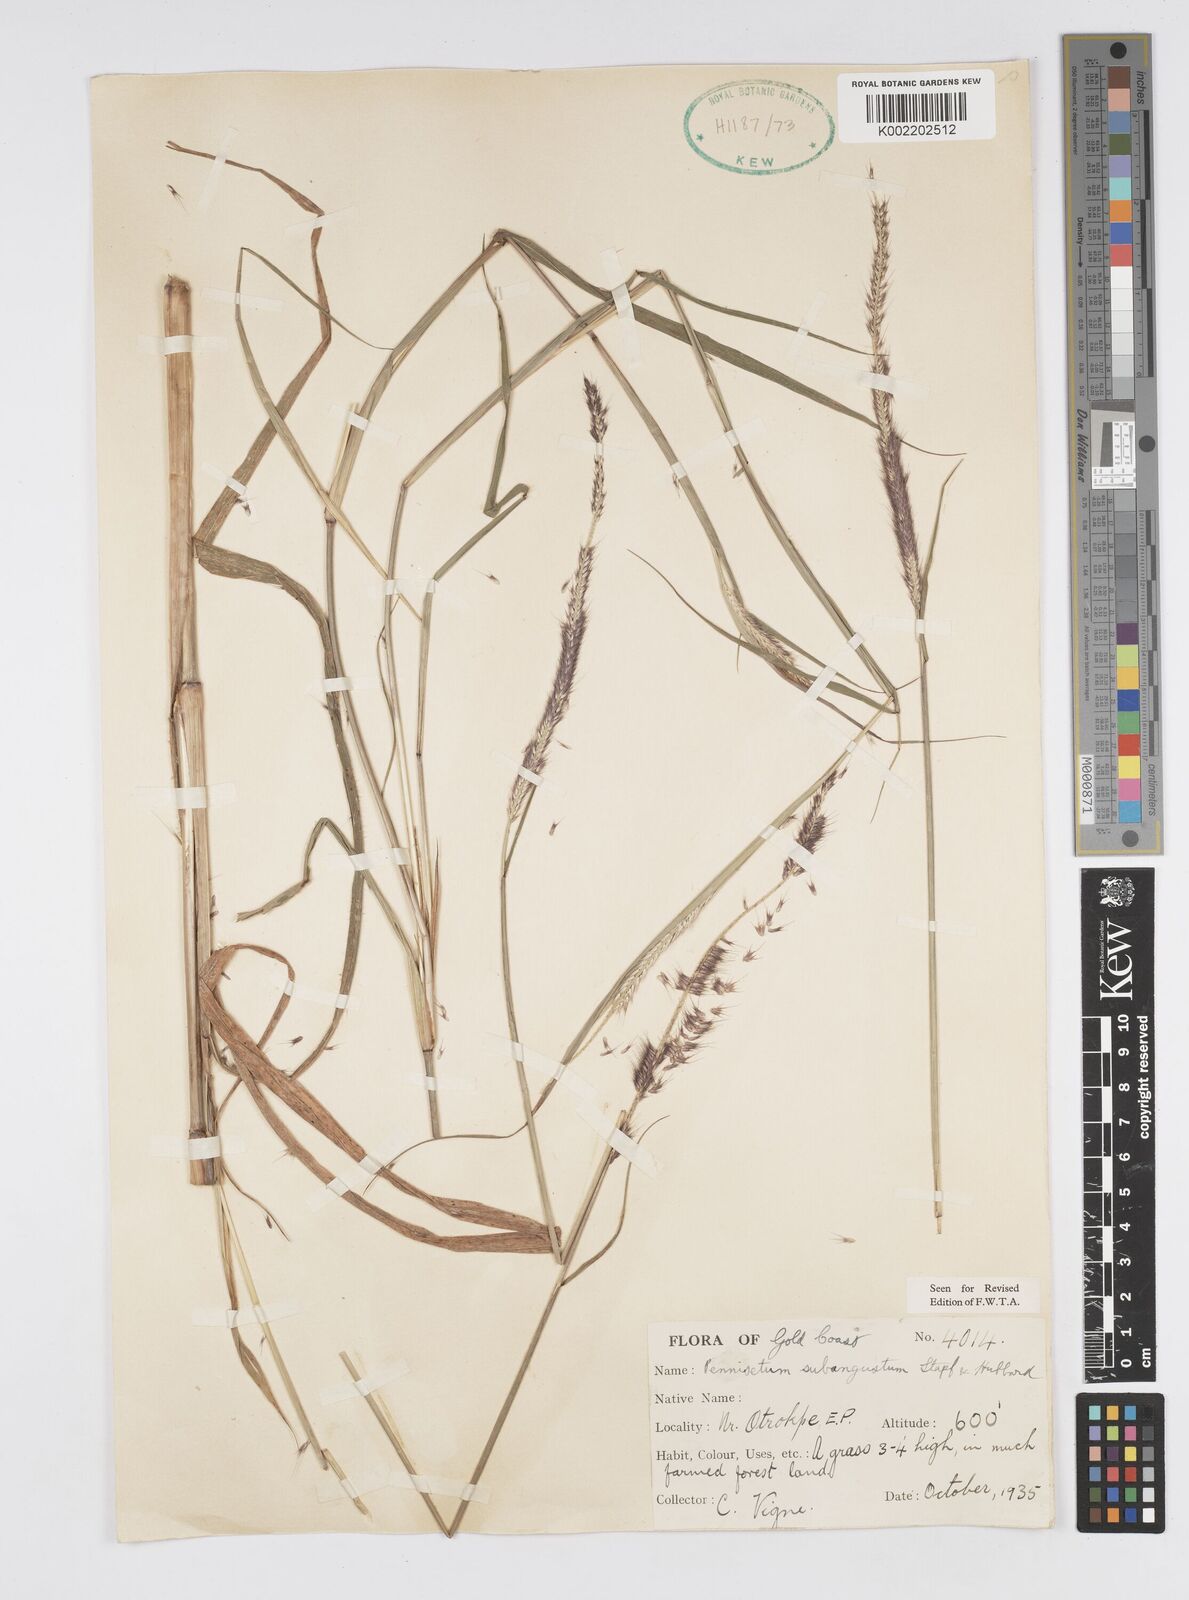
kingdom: Plantae
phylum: Tracheophyta
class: Liliopsida
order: Poales
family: Poaceae
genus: Setaria
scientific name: Setaria parviflora
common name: Knotroot bristle-grass
